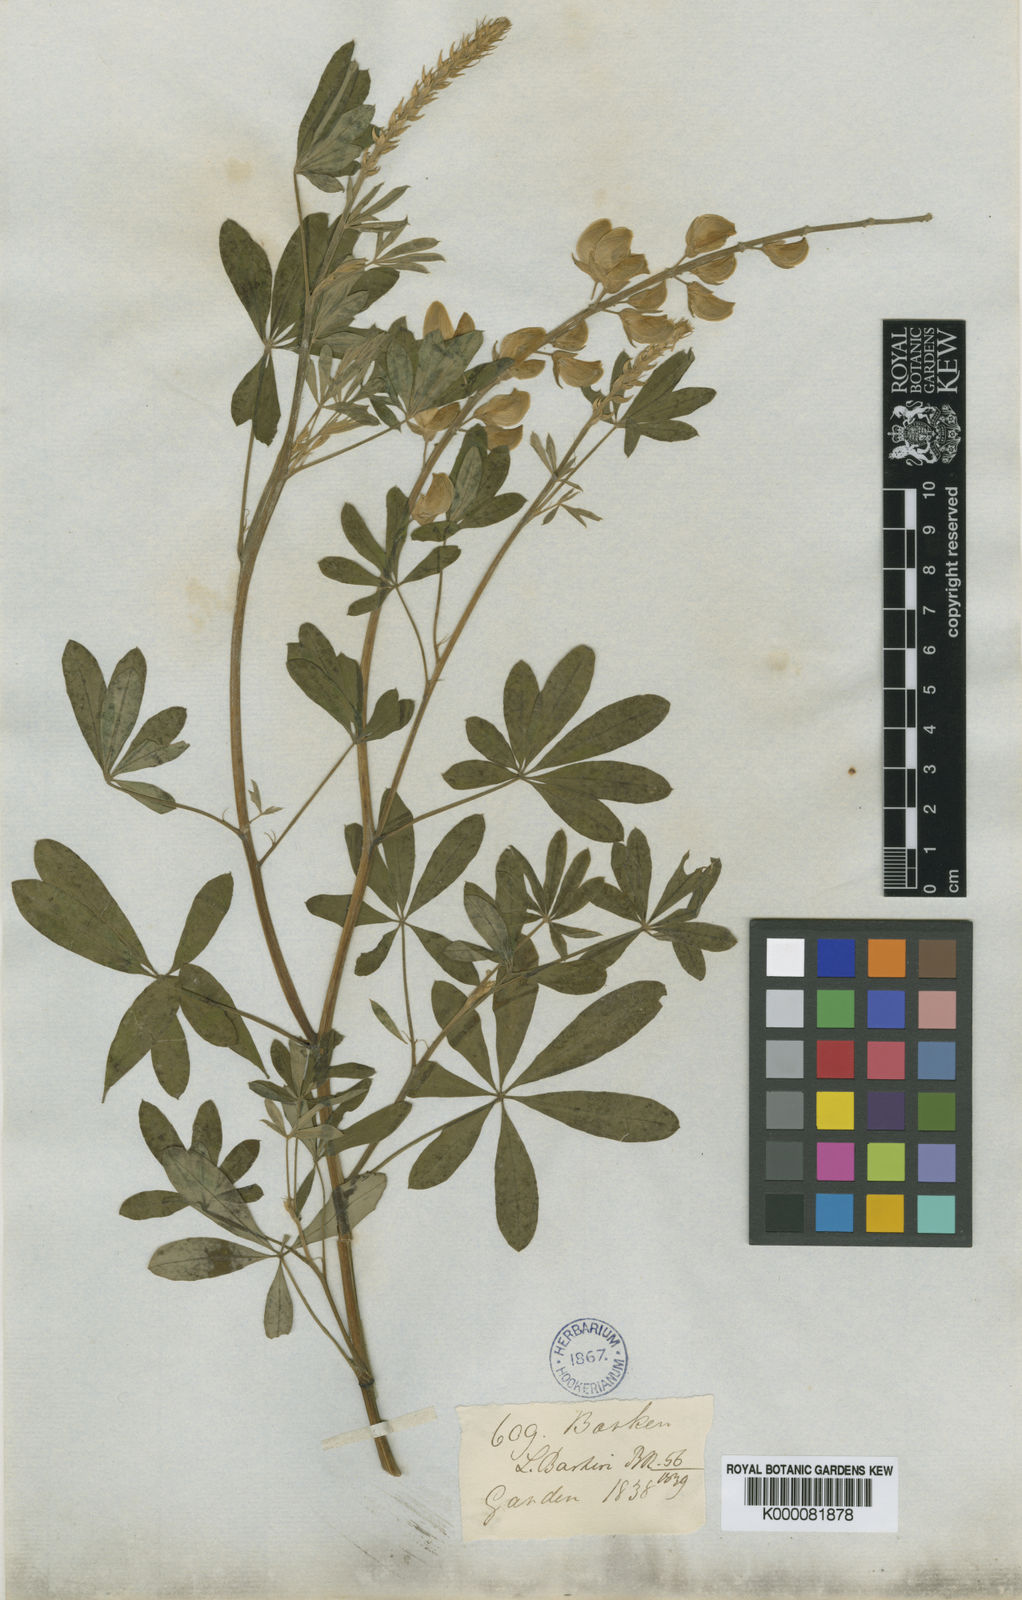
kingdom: Plantae
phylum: Tracheophyta
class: Magnoliopsida
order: Fabales
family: Fabaceae
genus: Lupinus
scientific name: Lupinus barkeri
